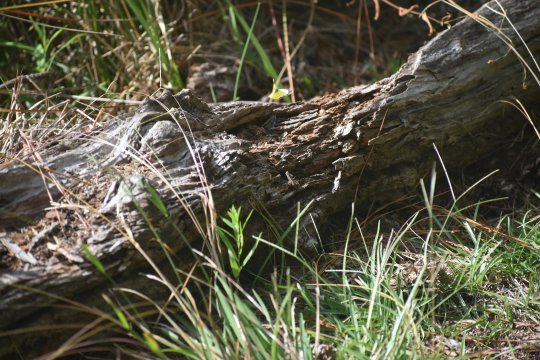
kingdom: Animalia
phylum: Arthropoda
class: Insecta
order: Lepidoptera
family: Pieridae
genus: Abaeis
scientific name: Abaeis nicippe
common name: Sleepy Orange
